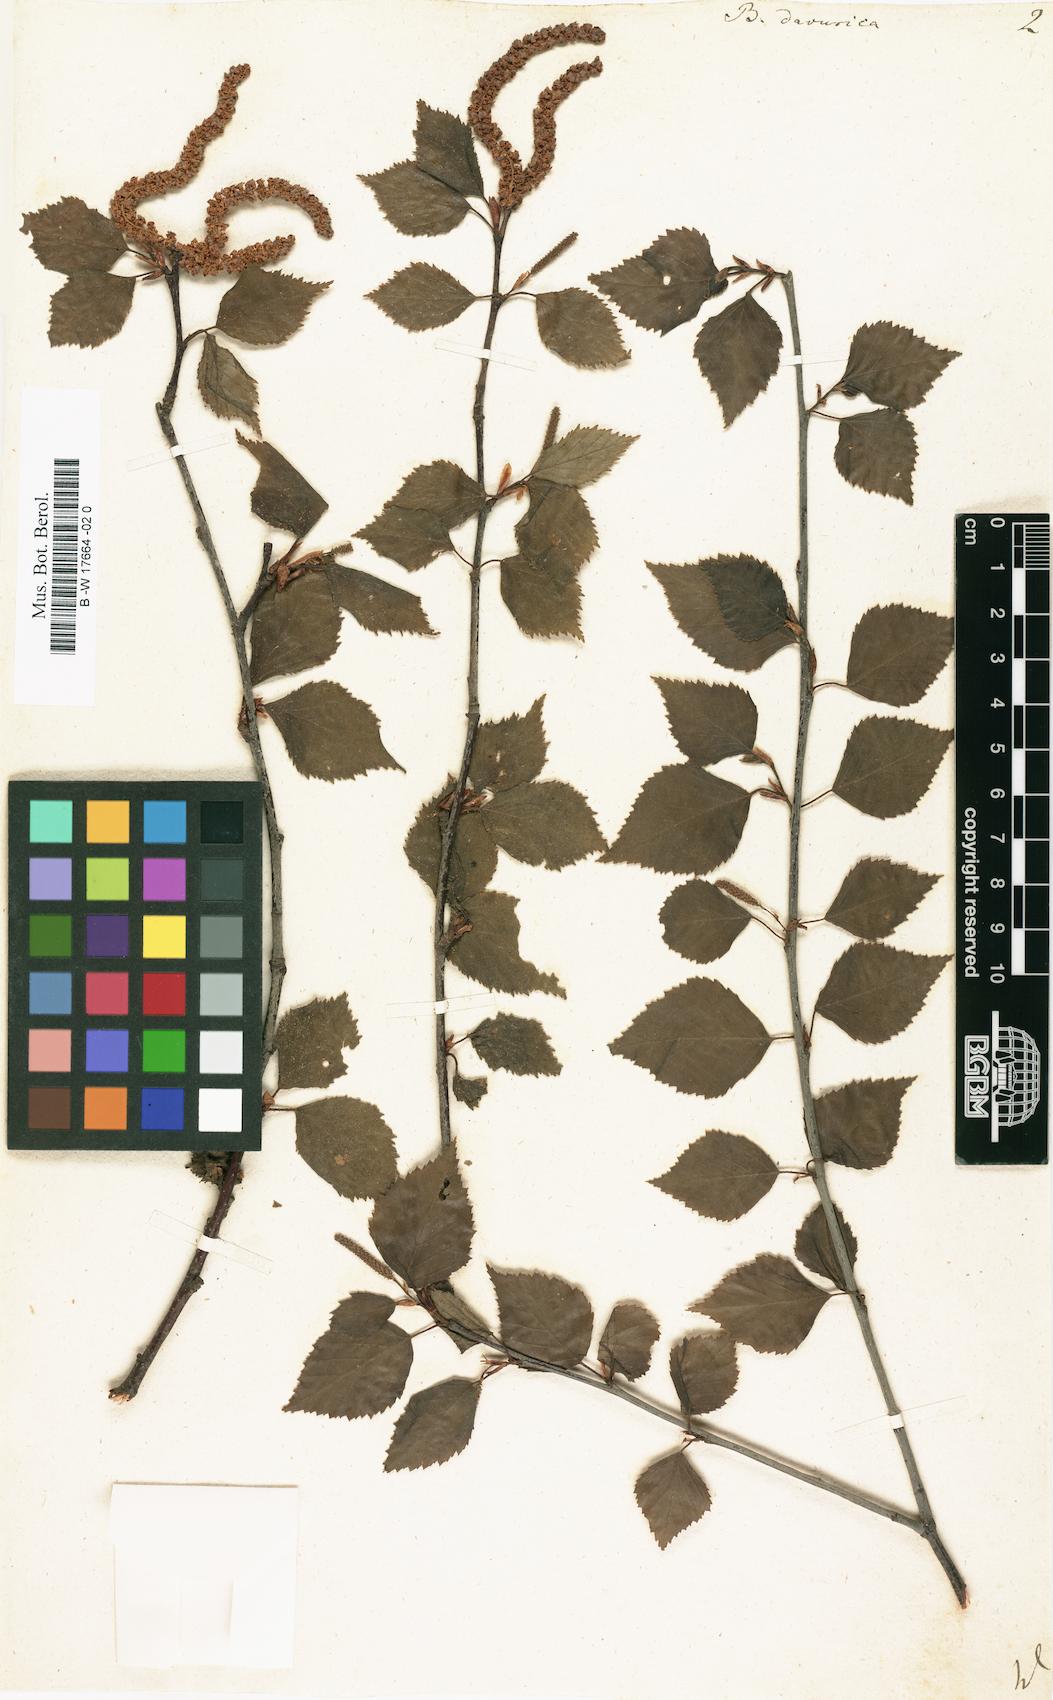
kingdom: Plantae
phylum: Tracheophyta
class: Magnoliopsida
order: Fagales
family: Betulaceae
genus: Betula
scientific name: Betula davurica
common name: Black birch
